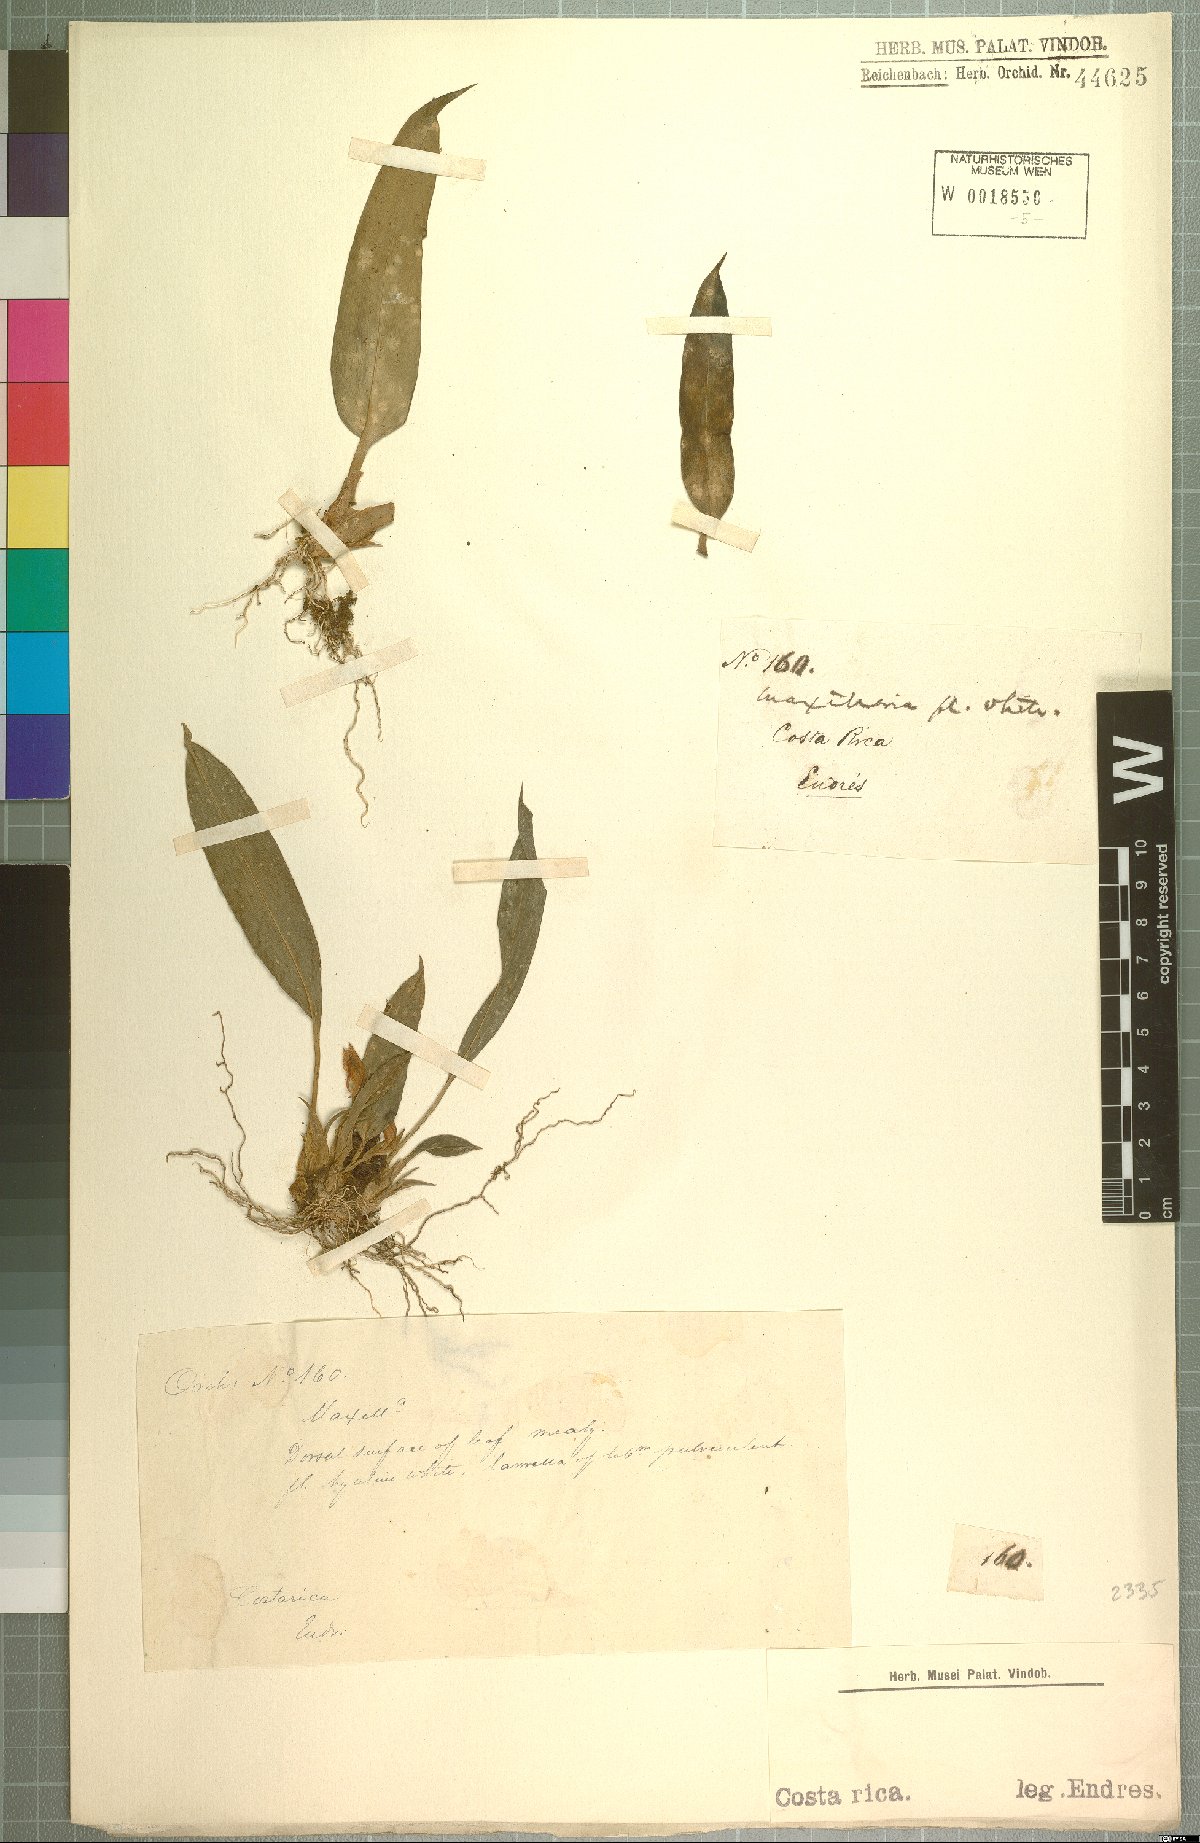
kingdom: Plantae
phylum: Tracheophyta
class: Liliopsida
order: Asparagales
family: Orchidaceae
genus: Maxillaria
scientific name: Maxillaria
